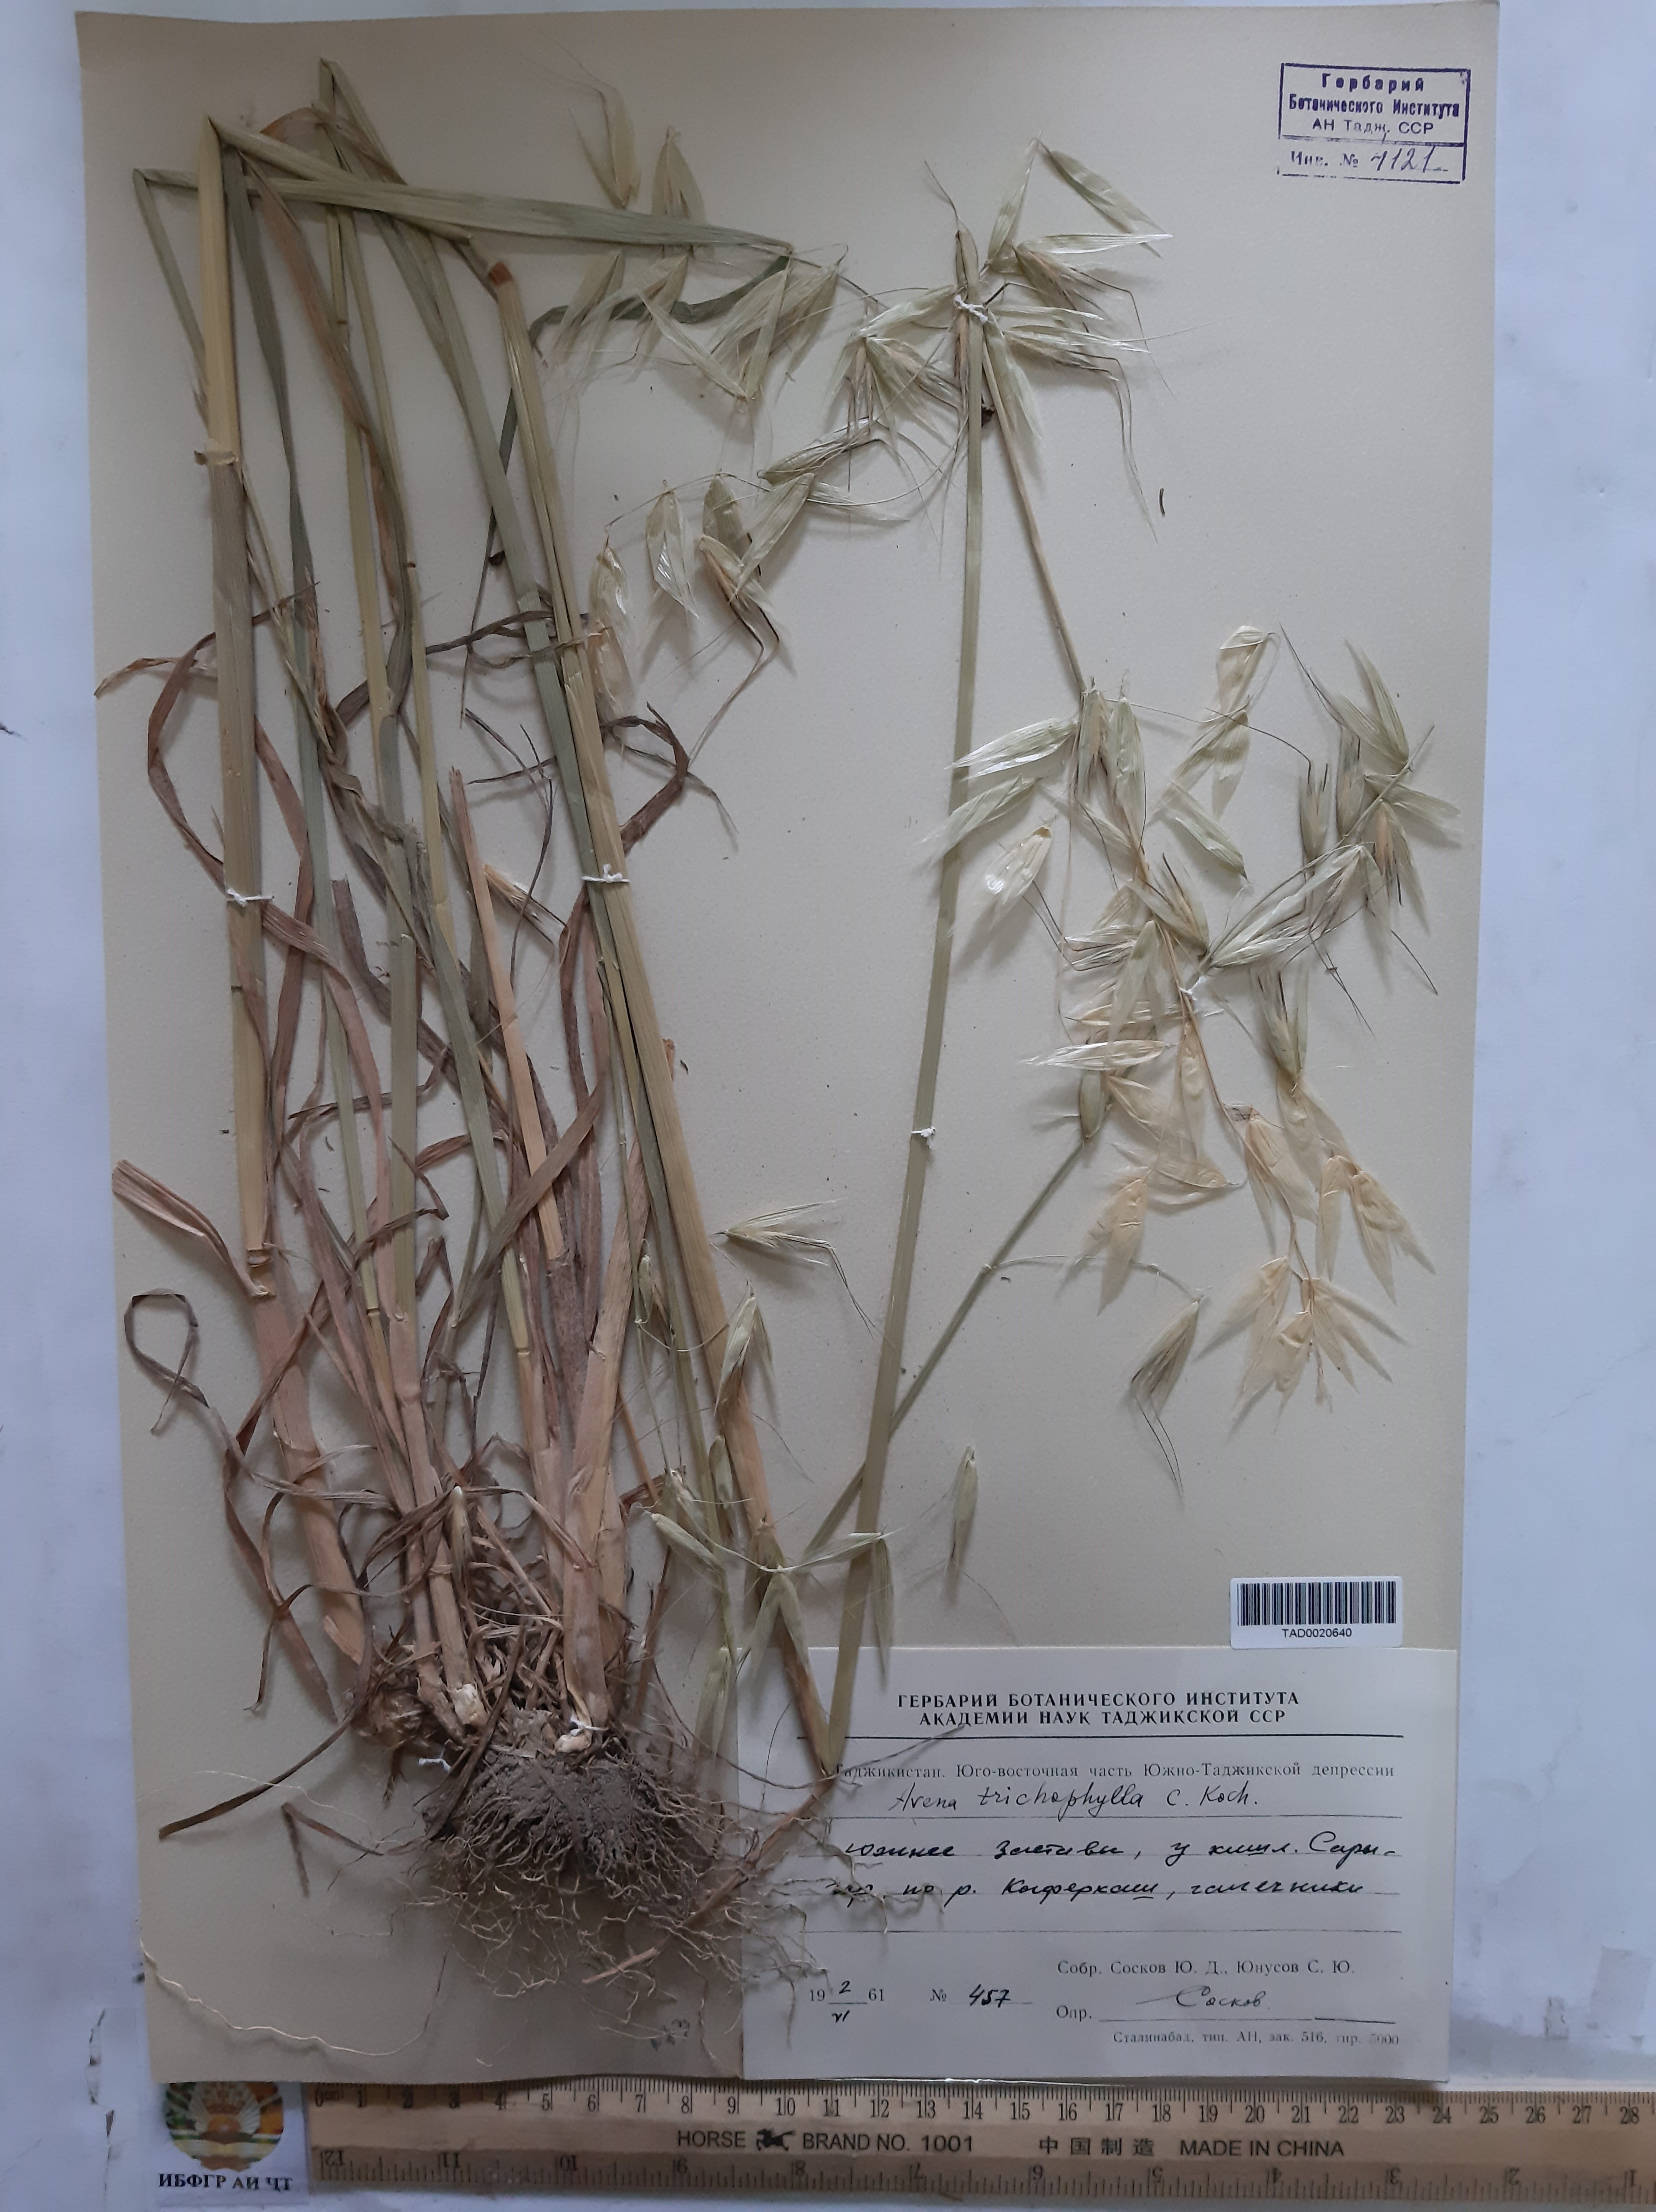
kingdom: Plantae
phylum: Tracheophyta
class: Liliopsida
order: Poales
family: Poaceae
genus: Avena
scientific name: Avena sterilis
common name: Animated oat
